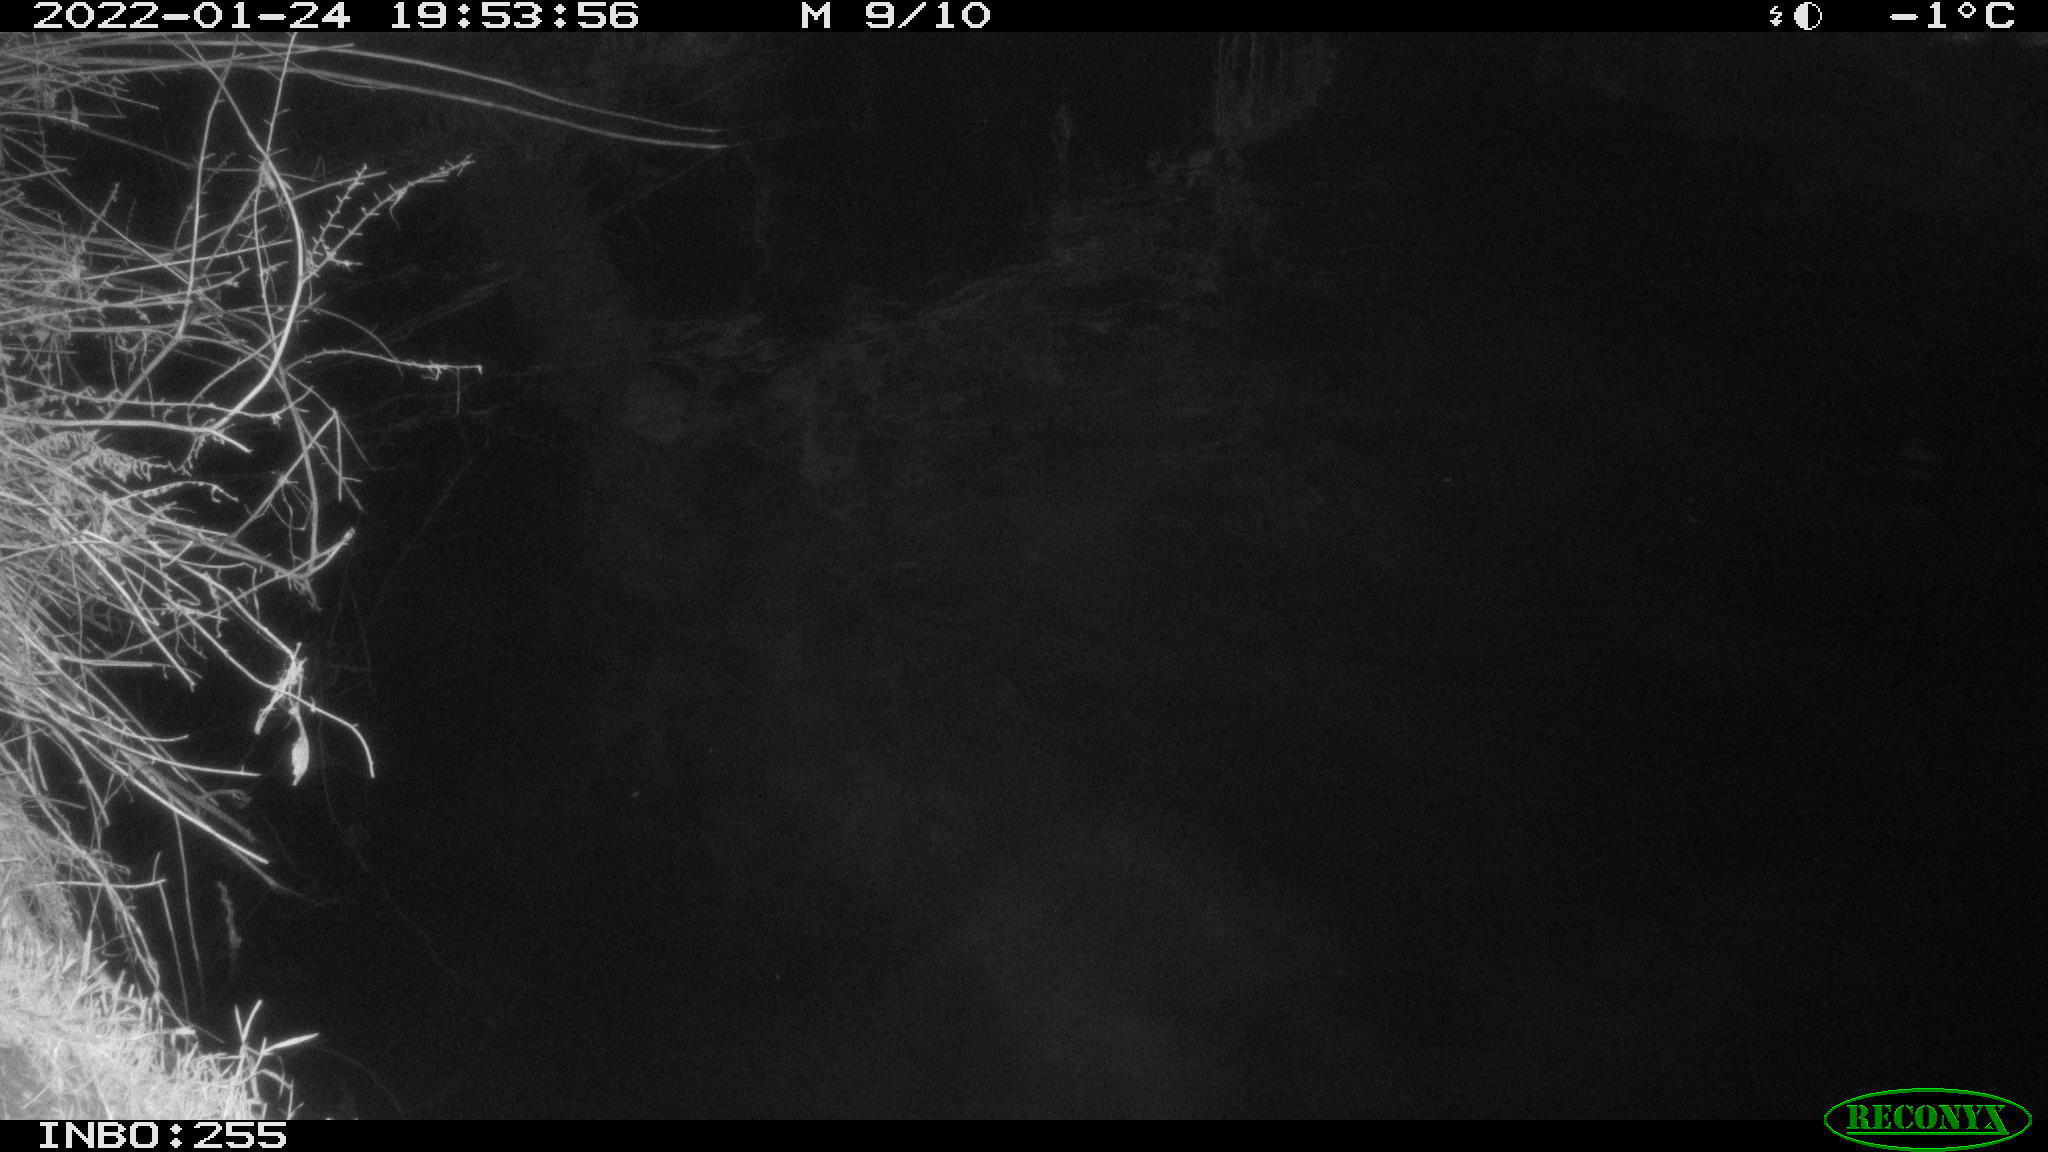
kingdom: Animalia
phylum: Chordata
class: Aves
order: Anseriformes
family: Anatidae
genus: Anas
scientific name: Anas
